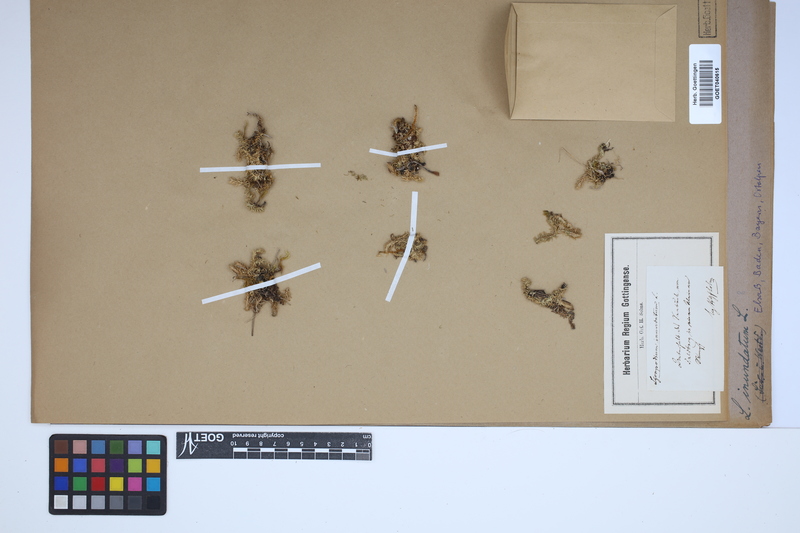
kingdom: Plantae
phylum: Tracheophyta
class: Lycopodiopsida
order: Lycopodiales
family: Lycopodiaceae
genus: Lycopodiella
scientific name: Lycopodiella inundata
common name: Marsh clubmoss
